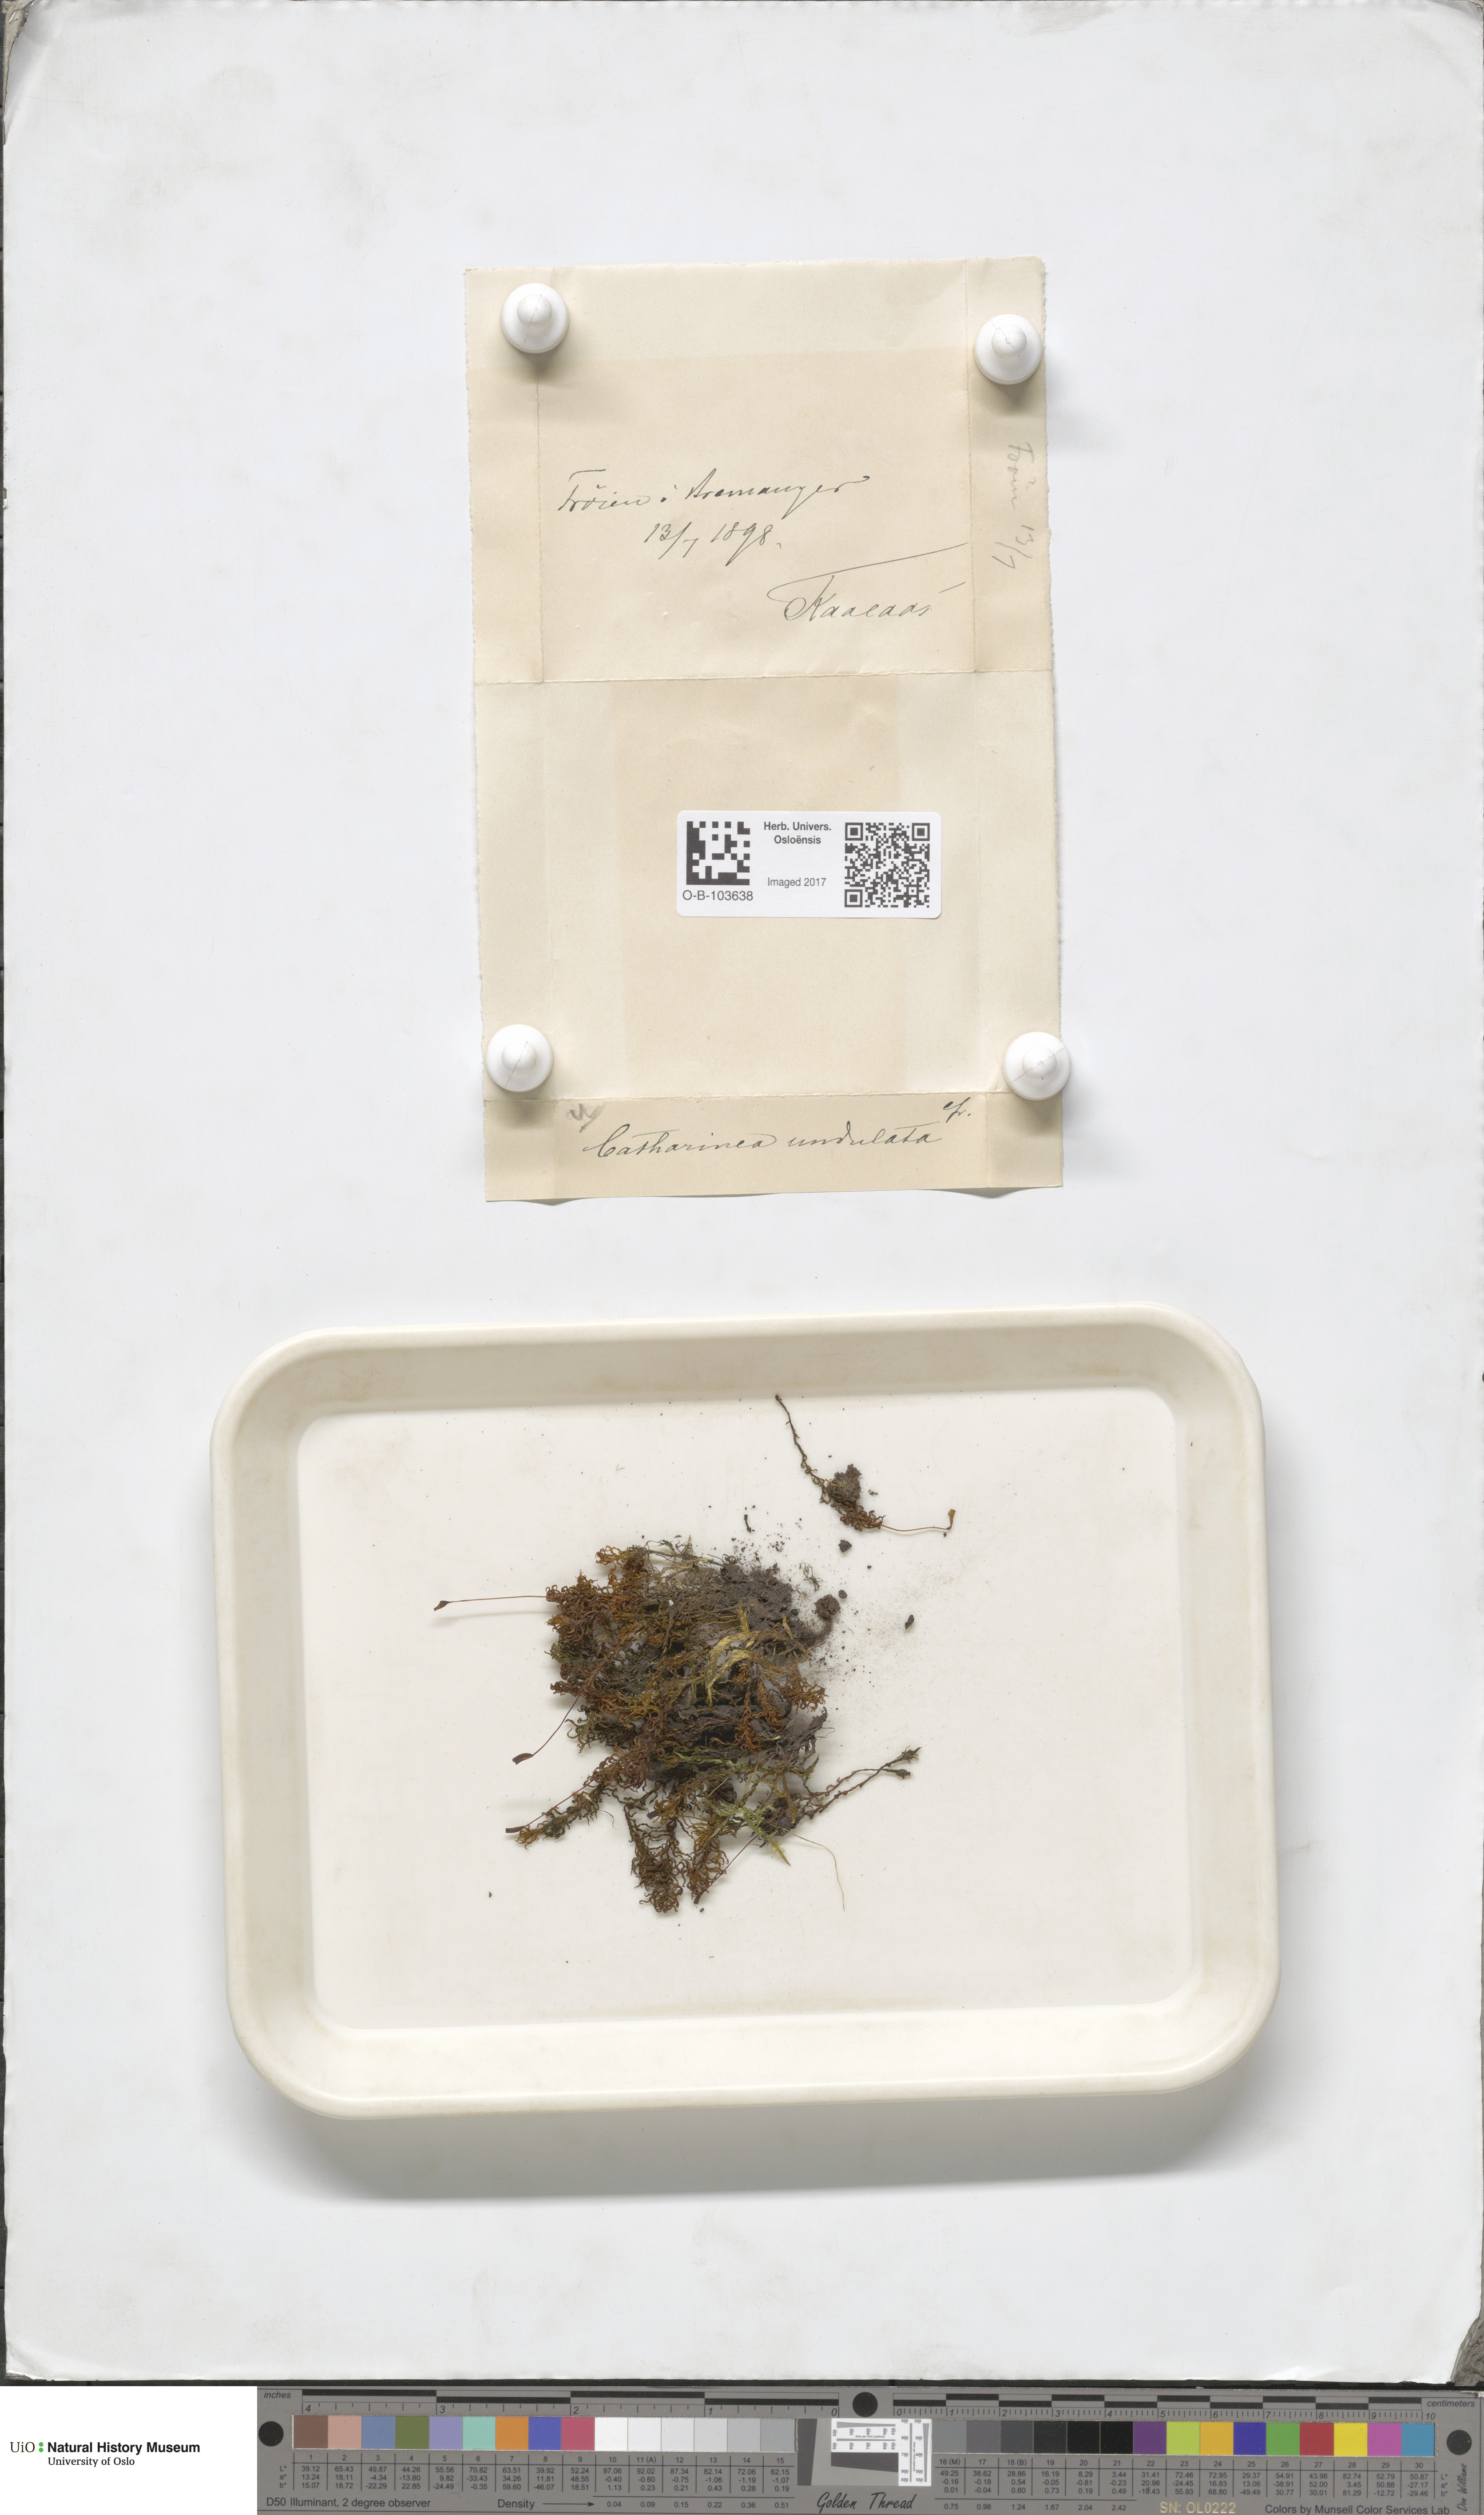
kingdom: Plantae
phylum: Bryophyta
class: Polytrichopsida
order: Polytrichales
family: Polytrichaceae
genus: Atrichum
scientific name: Atrichum undulatum
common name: Common smoothcap
